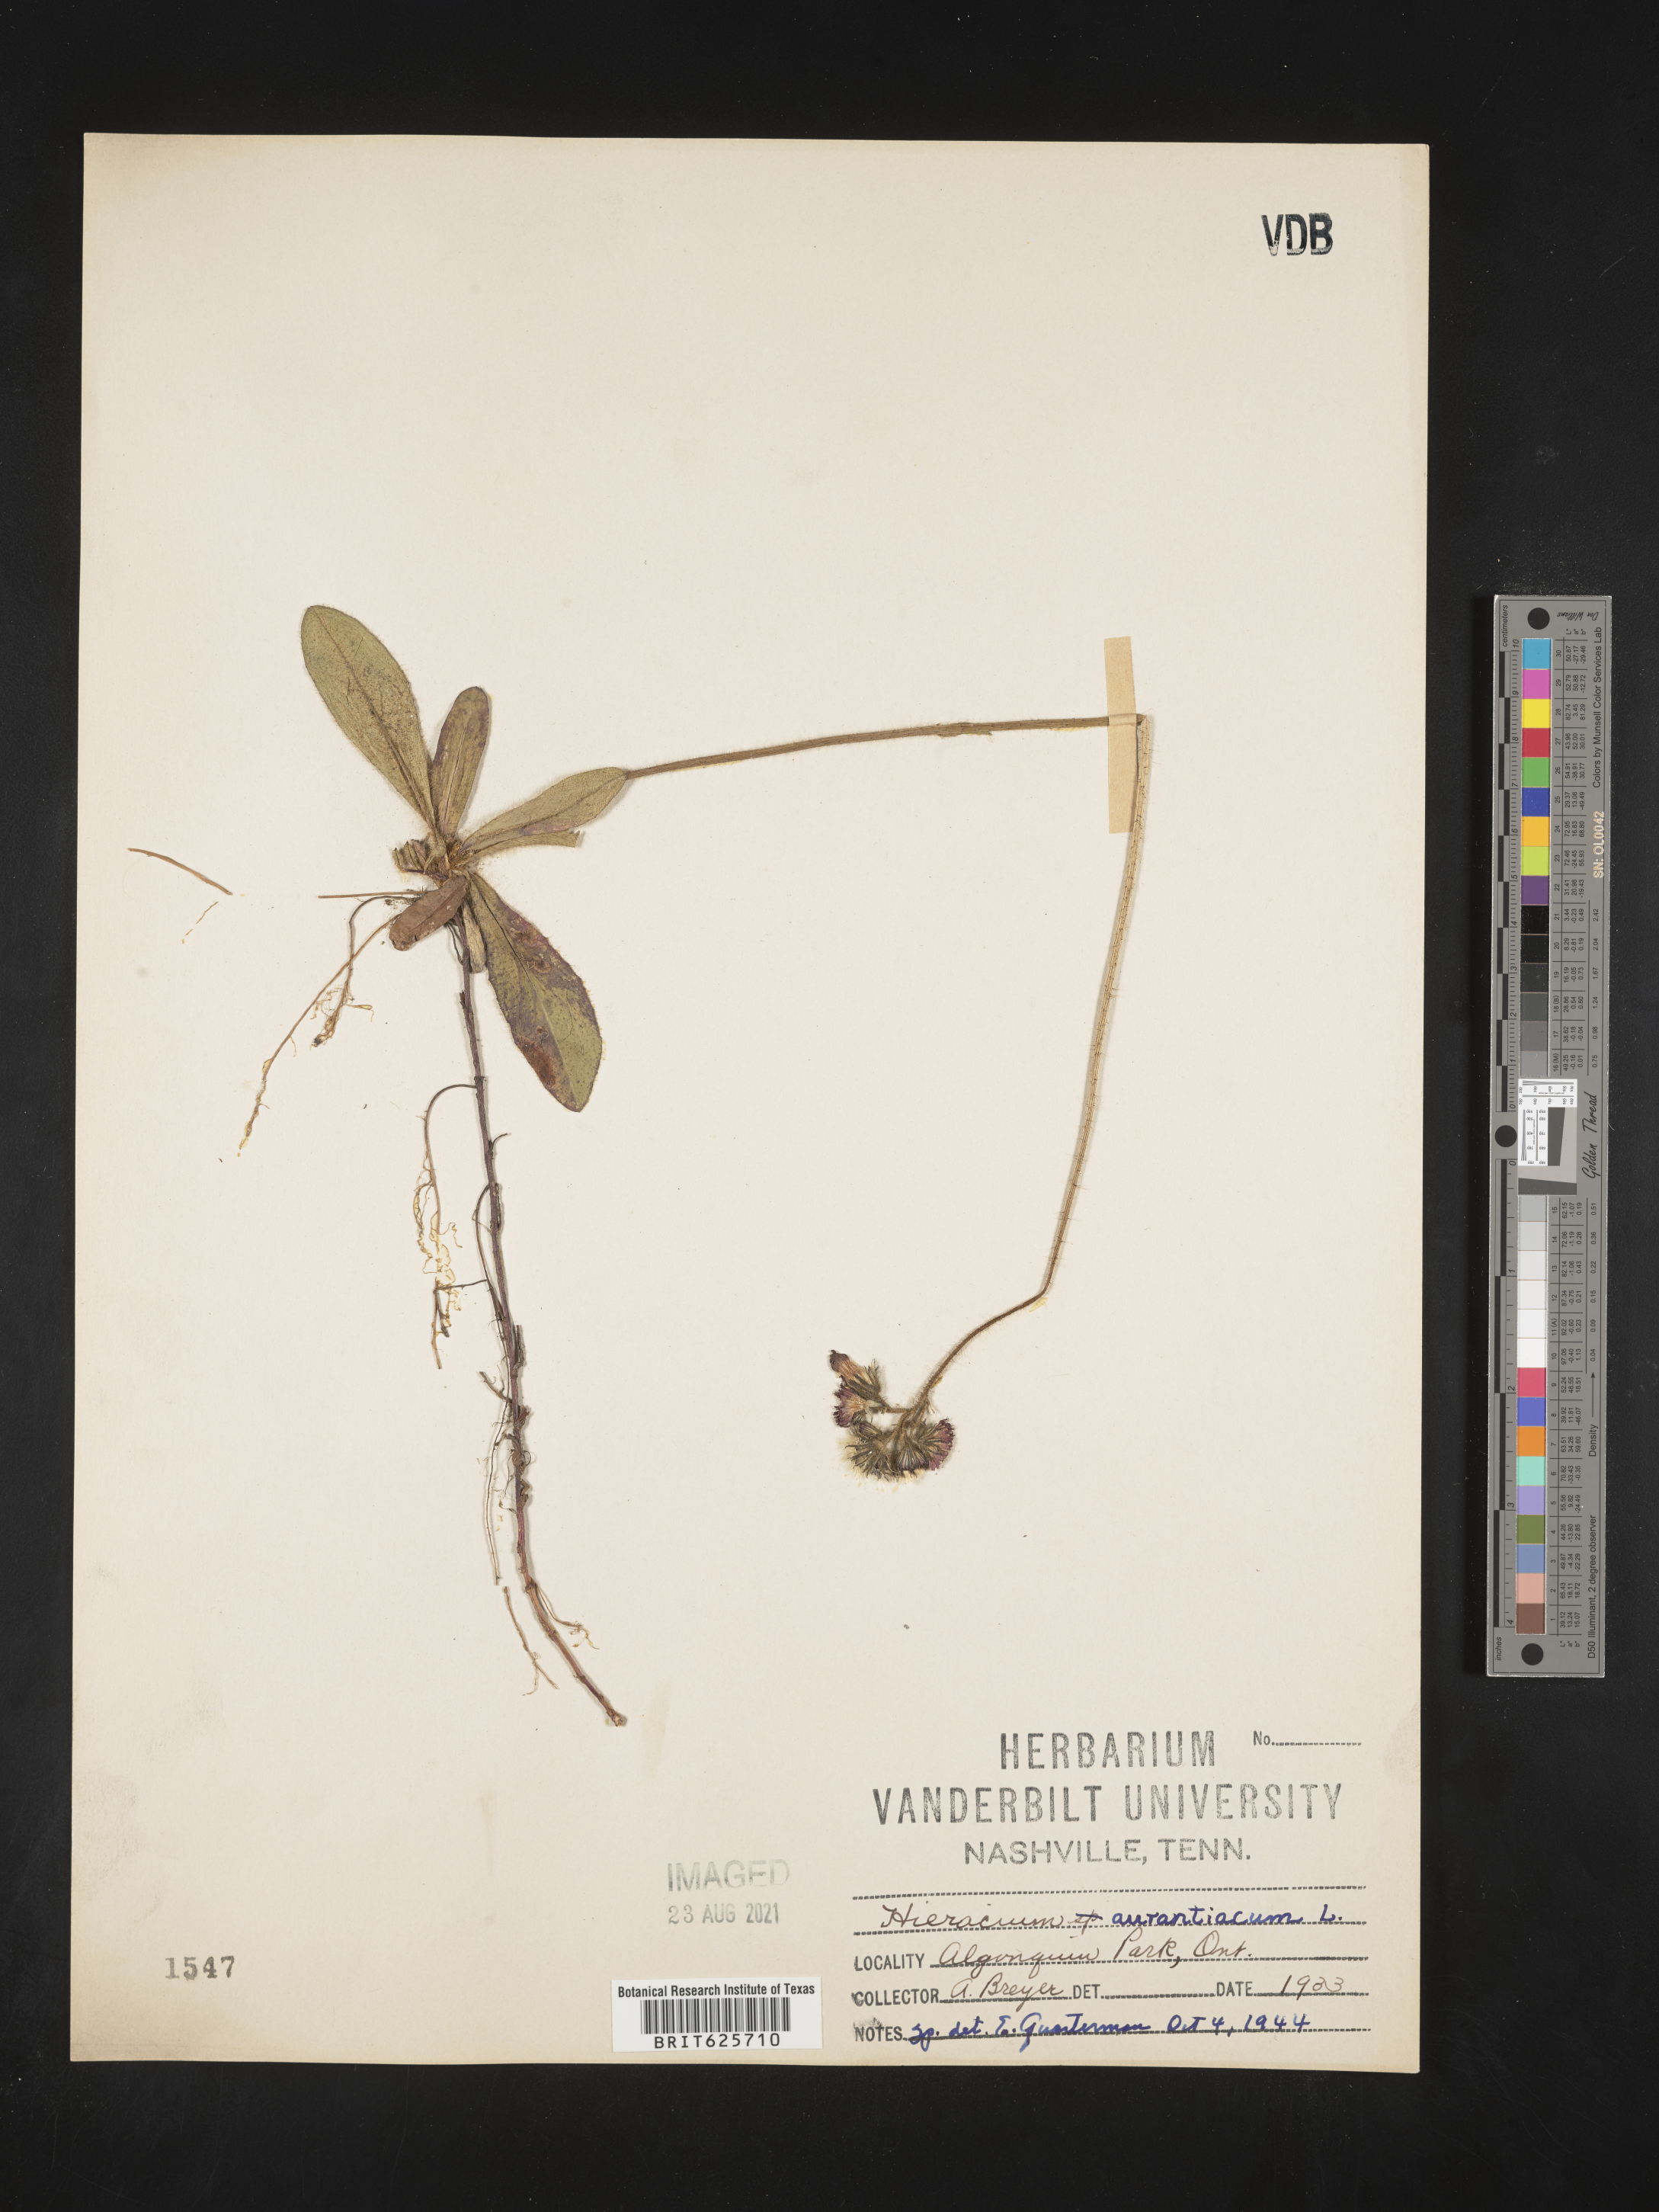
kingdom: Plantae
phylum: Tracheophyta
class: Magnoliopsida
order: Asterales
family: Asteraceae
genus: Pilosella
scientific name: Pilosella aurantiaca
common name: Fox-and-cubs
